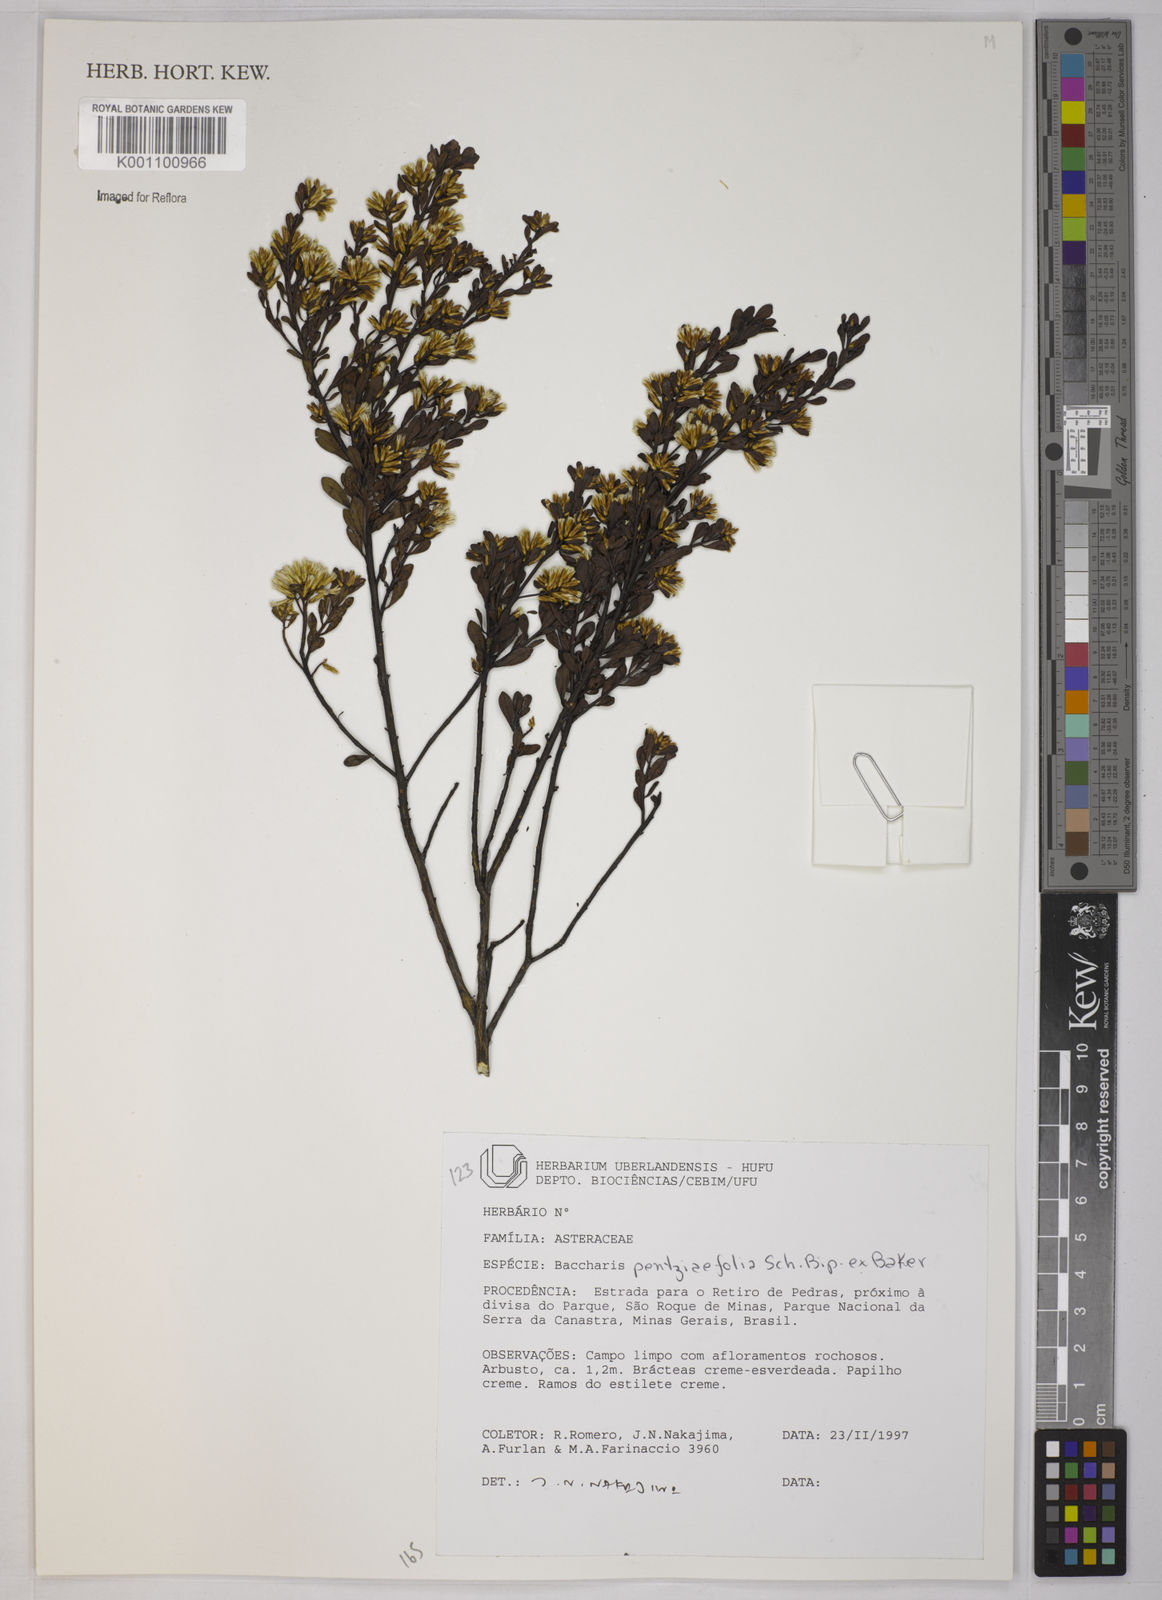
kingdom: Plantae
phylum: Tracheophyta
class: Magnoliopsida
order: Asterales
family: Asteraceae
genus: Baccharis
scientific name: Baccharis pentziifolia
